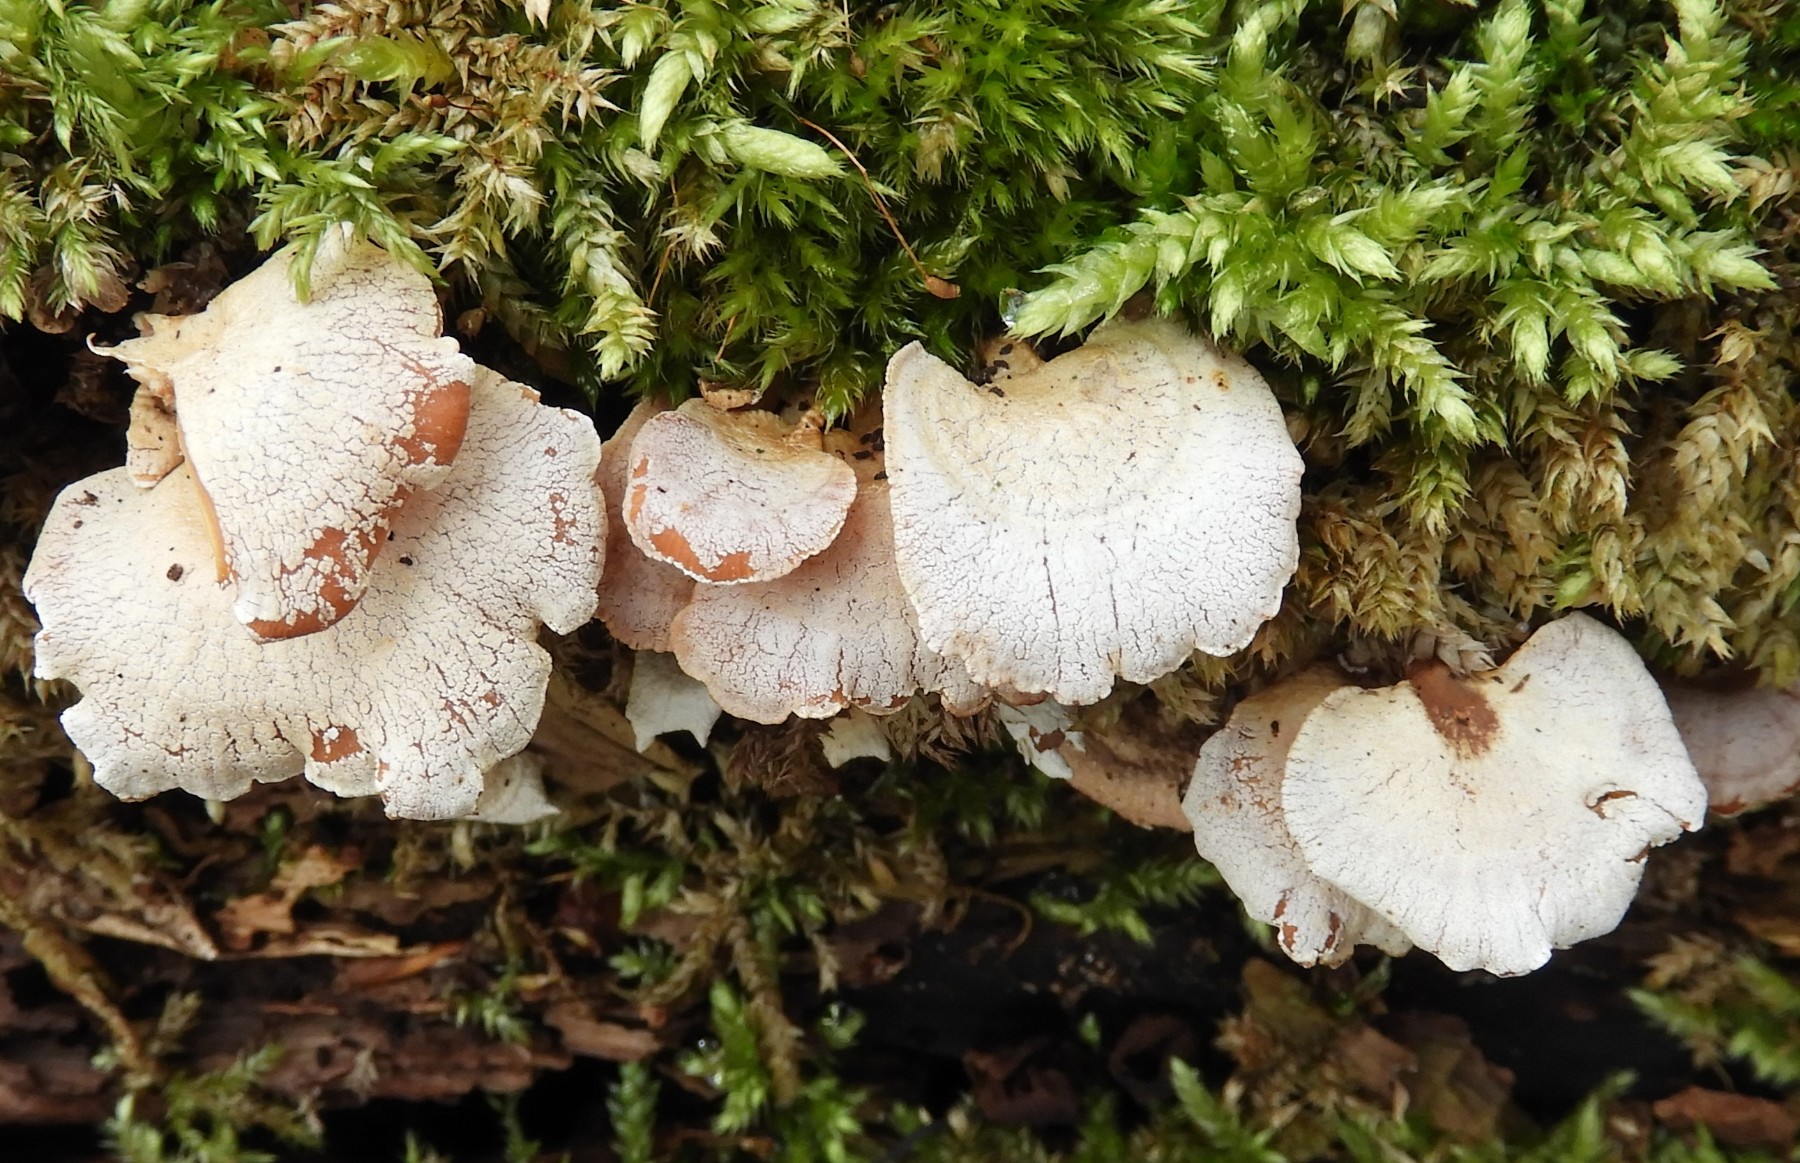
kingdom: Fungi
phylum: Basidiomycota
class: Agaricomycetes
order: Agaricales
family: Mycenaceae
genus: Panellus
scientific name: Panellus stipticus
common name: kliddet epaulethat
